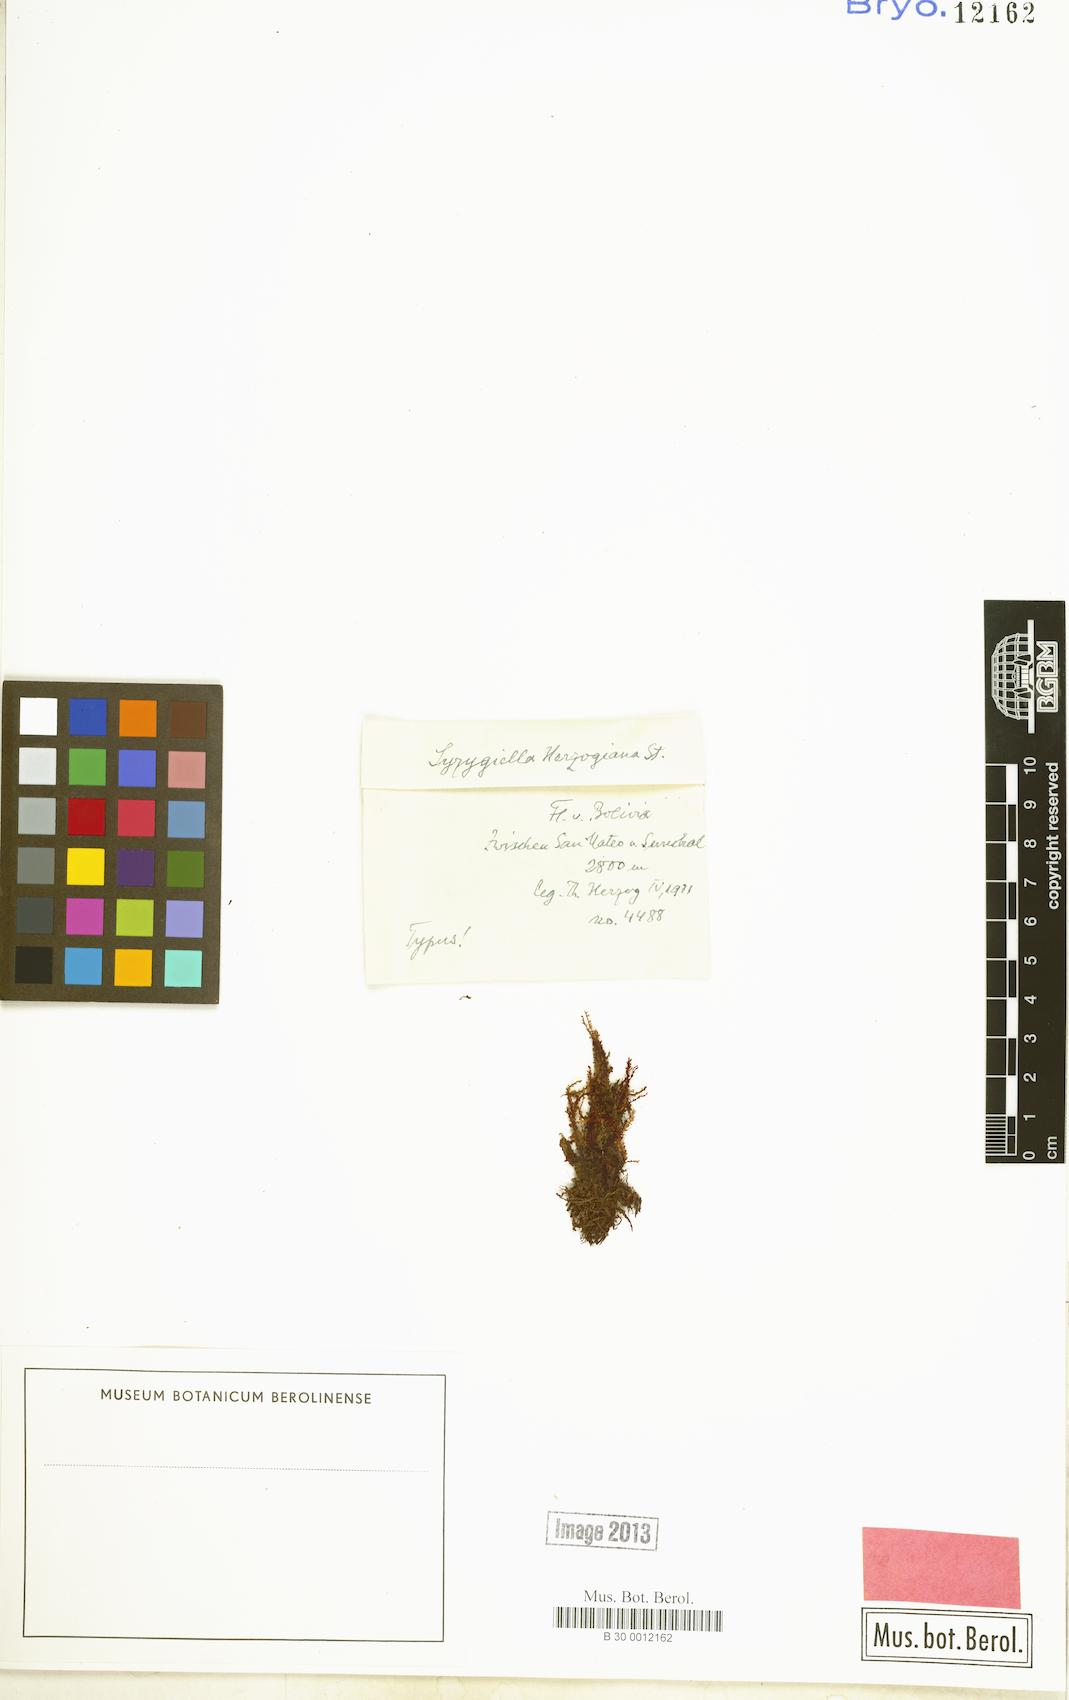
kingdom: Plantae
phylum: Marchantiophyta
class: Jungermanniopsida
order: Jungermanniales
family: Adelanthaceae
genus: Syzygiella
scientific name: Syzygiella perfoliata
